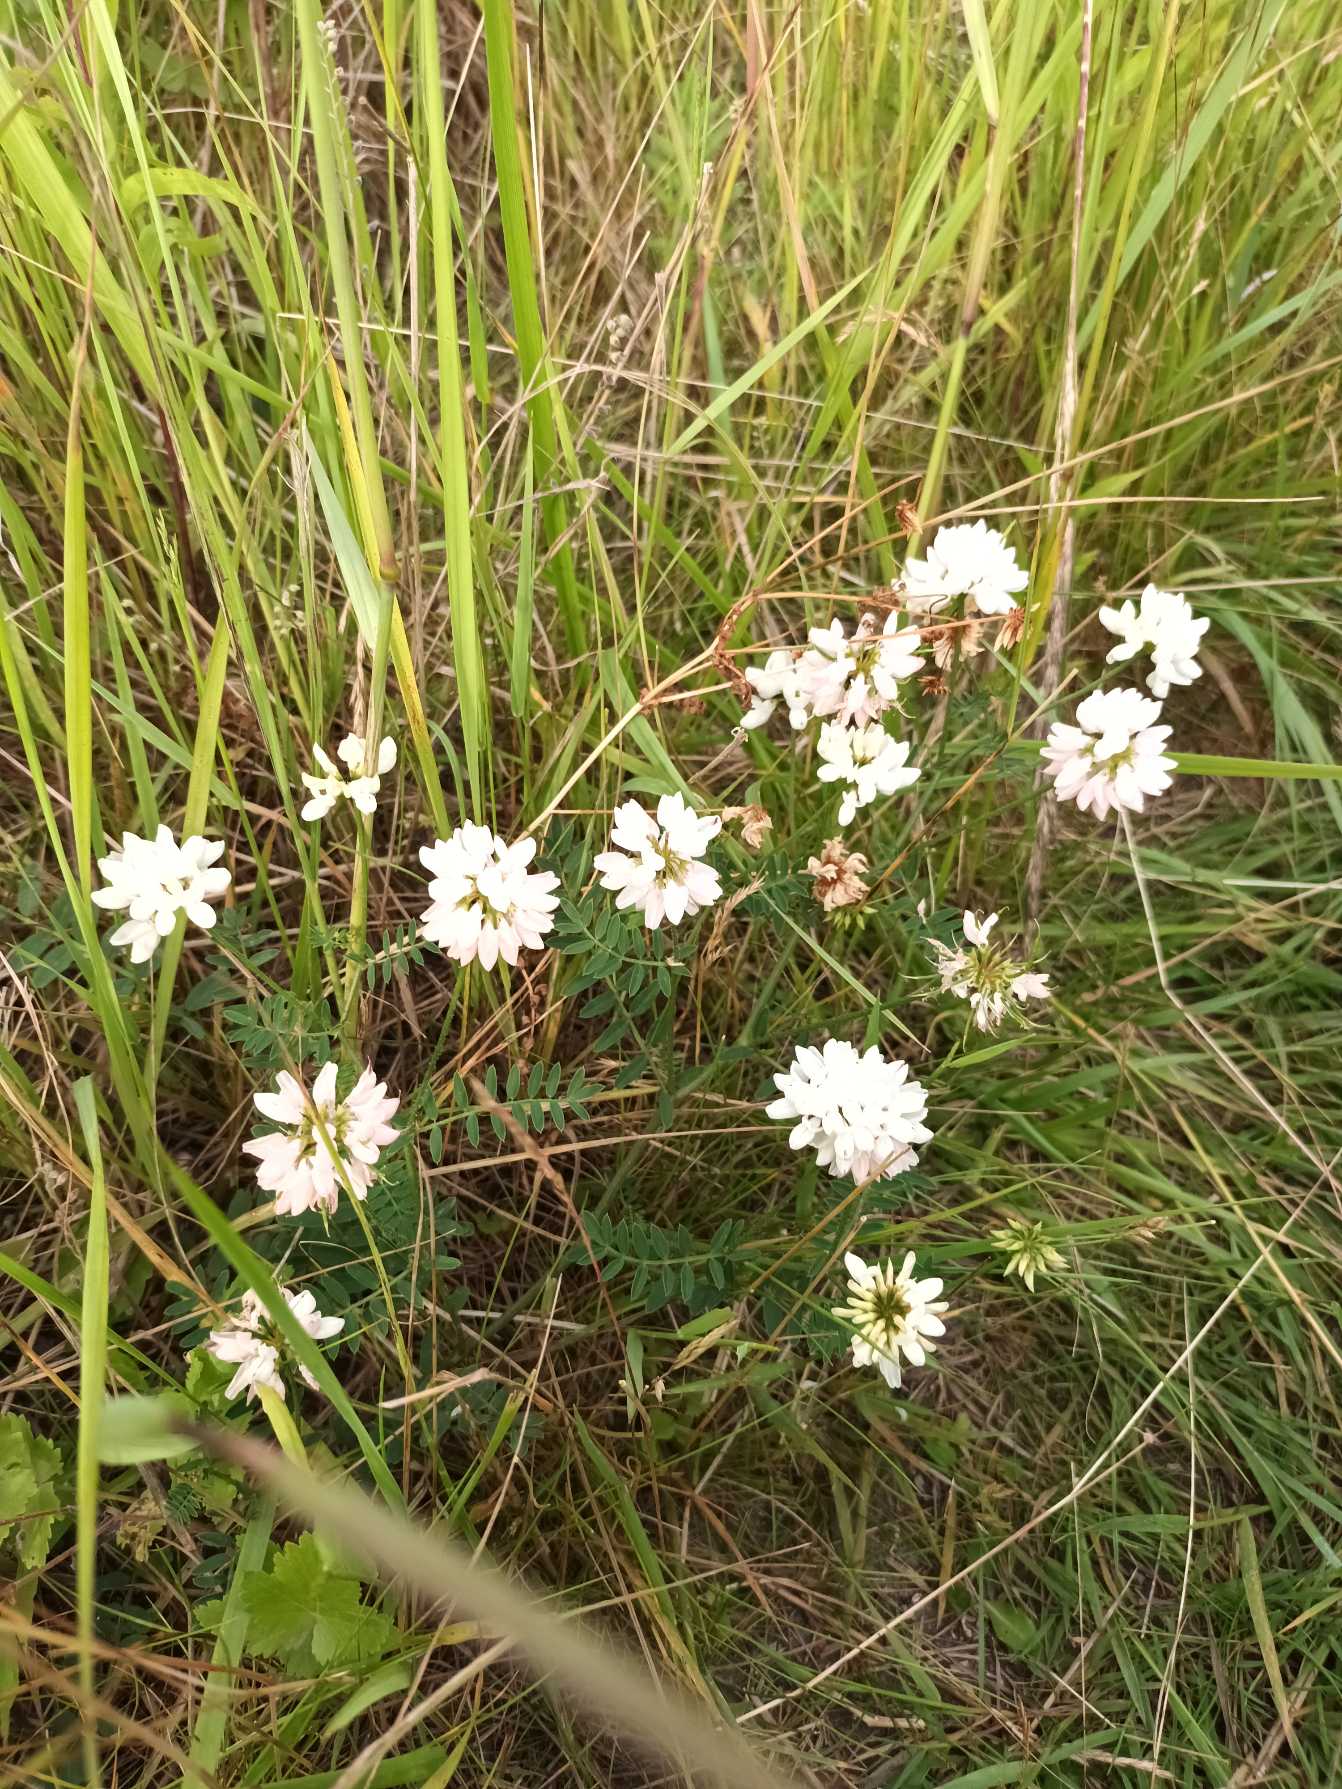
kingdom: Plantae
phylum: Tracheophyta
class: Magnoliopsida
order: Fabales
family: Fabaceae
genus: Coronilla
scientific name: Coronilla varia
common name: Giftig kronvikke
